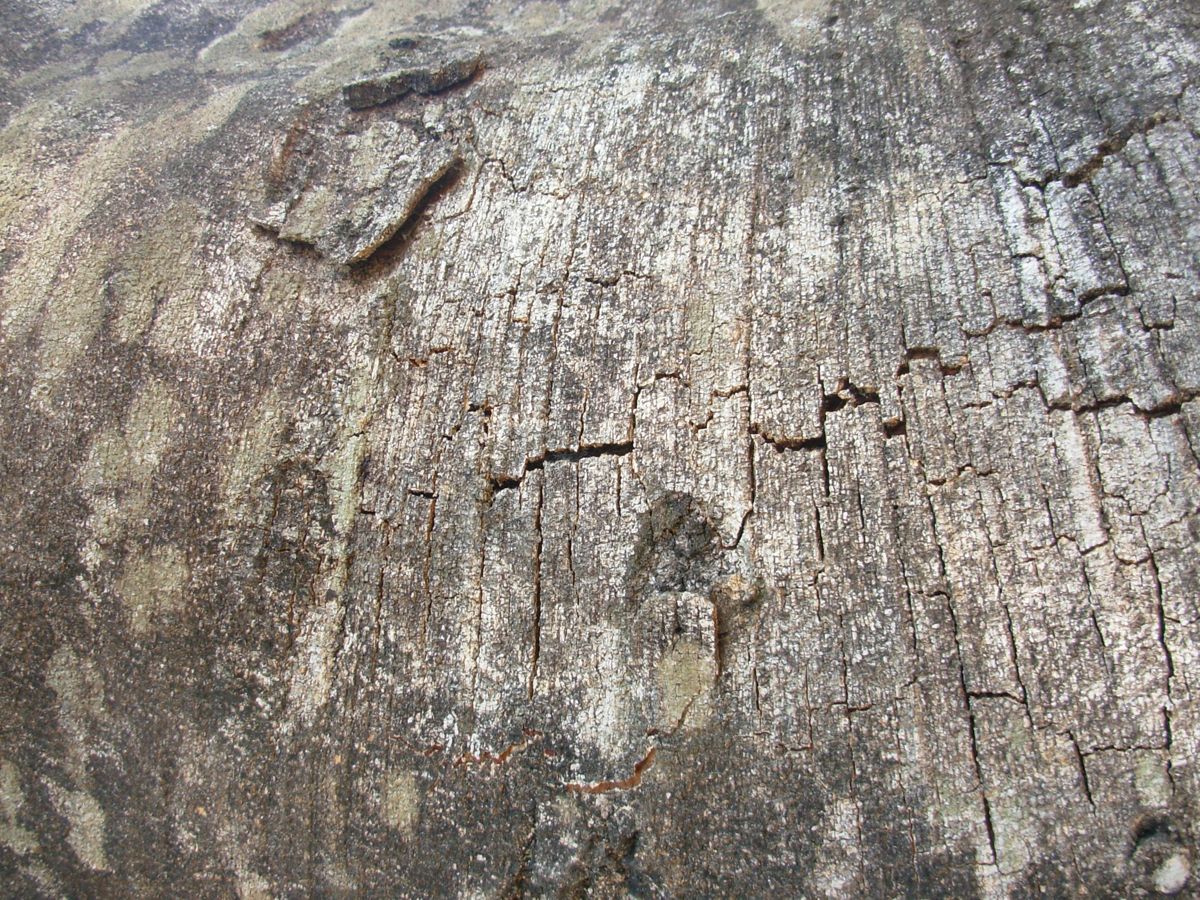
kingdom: Plantae
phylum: Tracheophyta
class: Magnoliopsida
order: Sapindales
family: Sapindaceae
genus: Thouinidium
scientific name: Thouinidium decandrum
